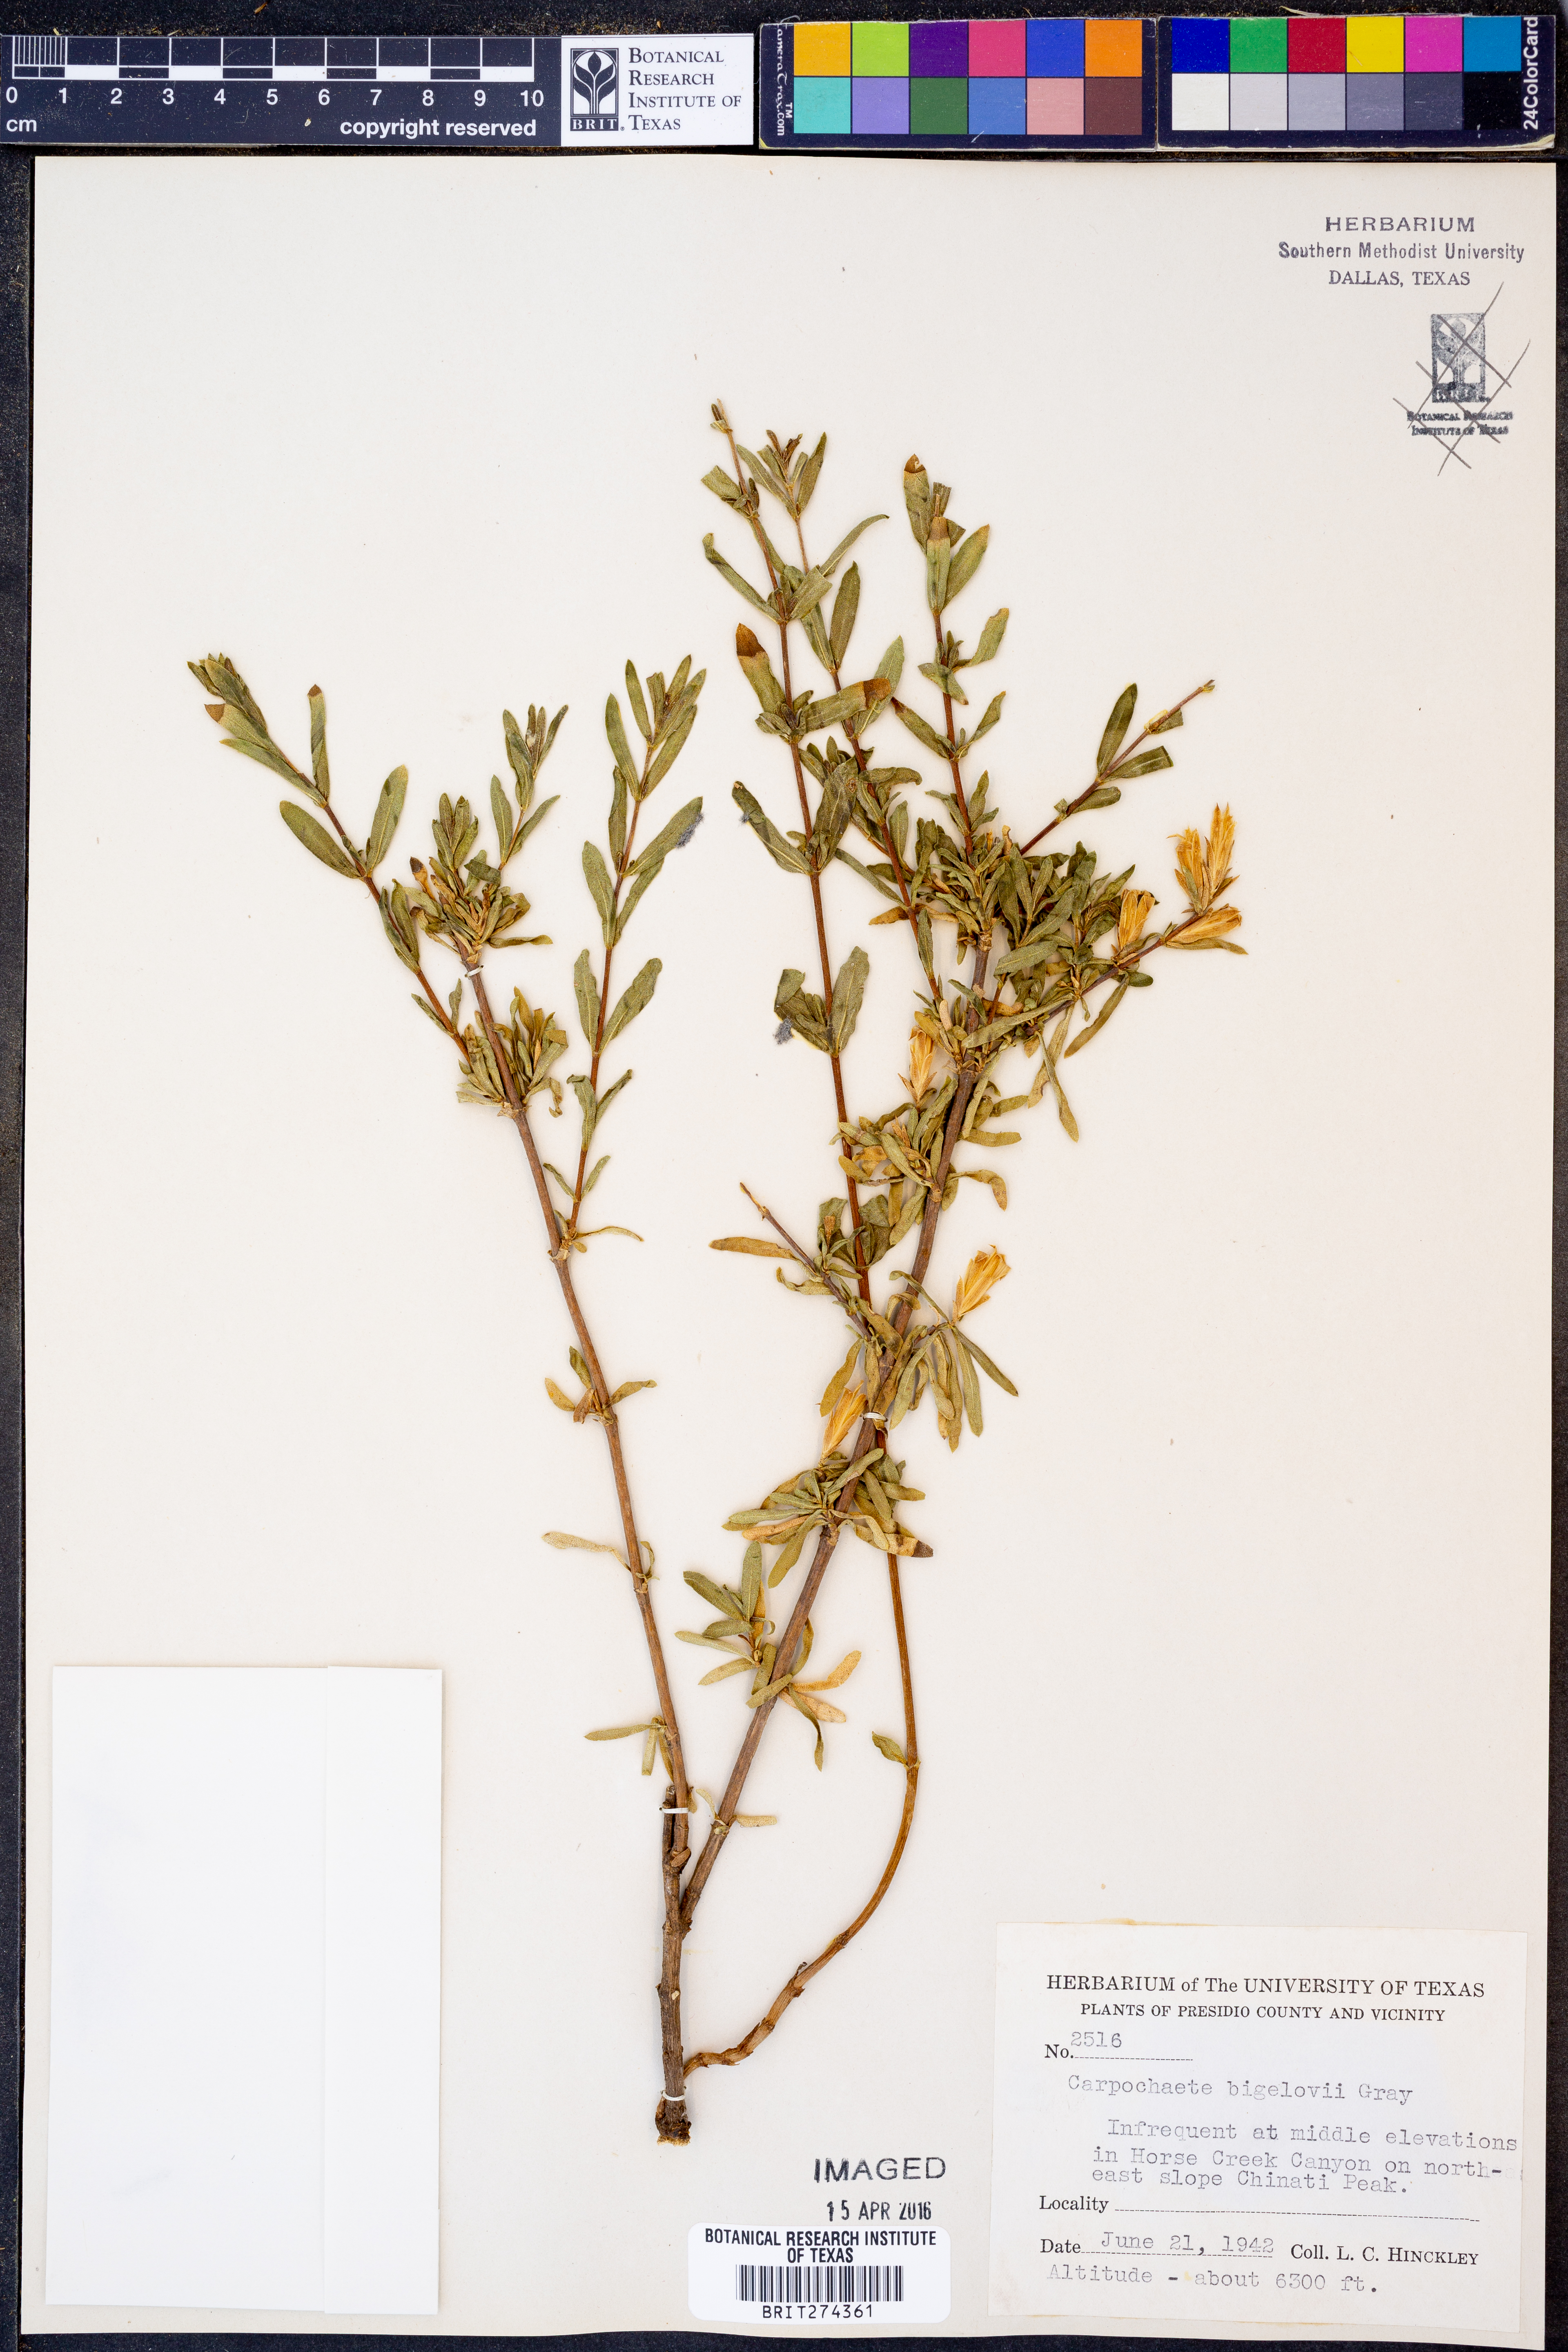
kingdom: Plantae
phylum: Tracheophyta
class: Magnoliopsida
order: Asterales
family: Asteraceae
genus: Carphochaete
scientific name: Carphochaete bigelovii
